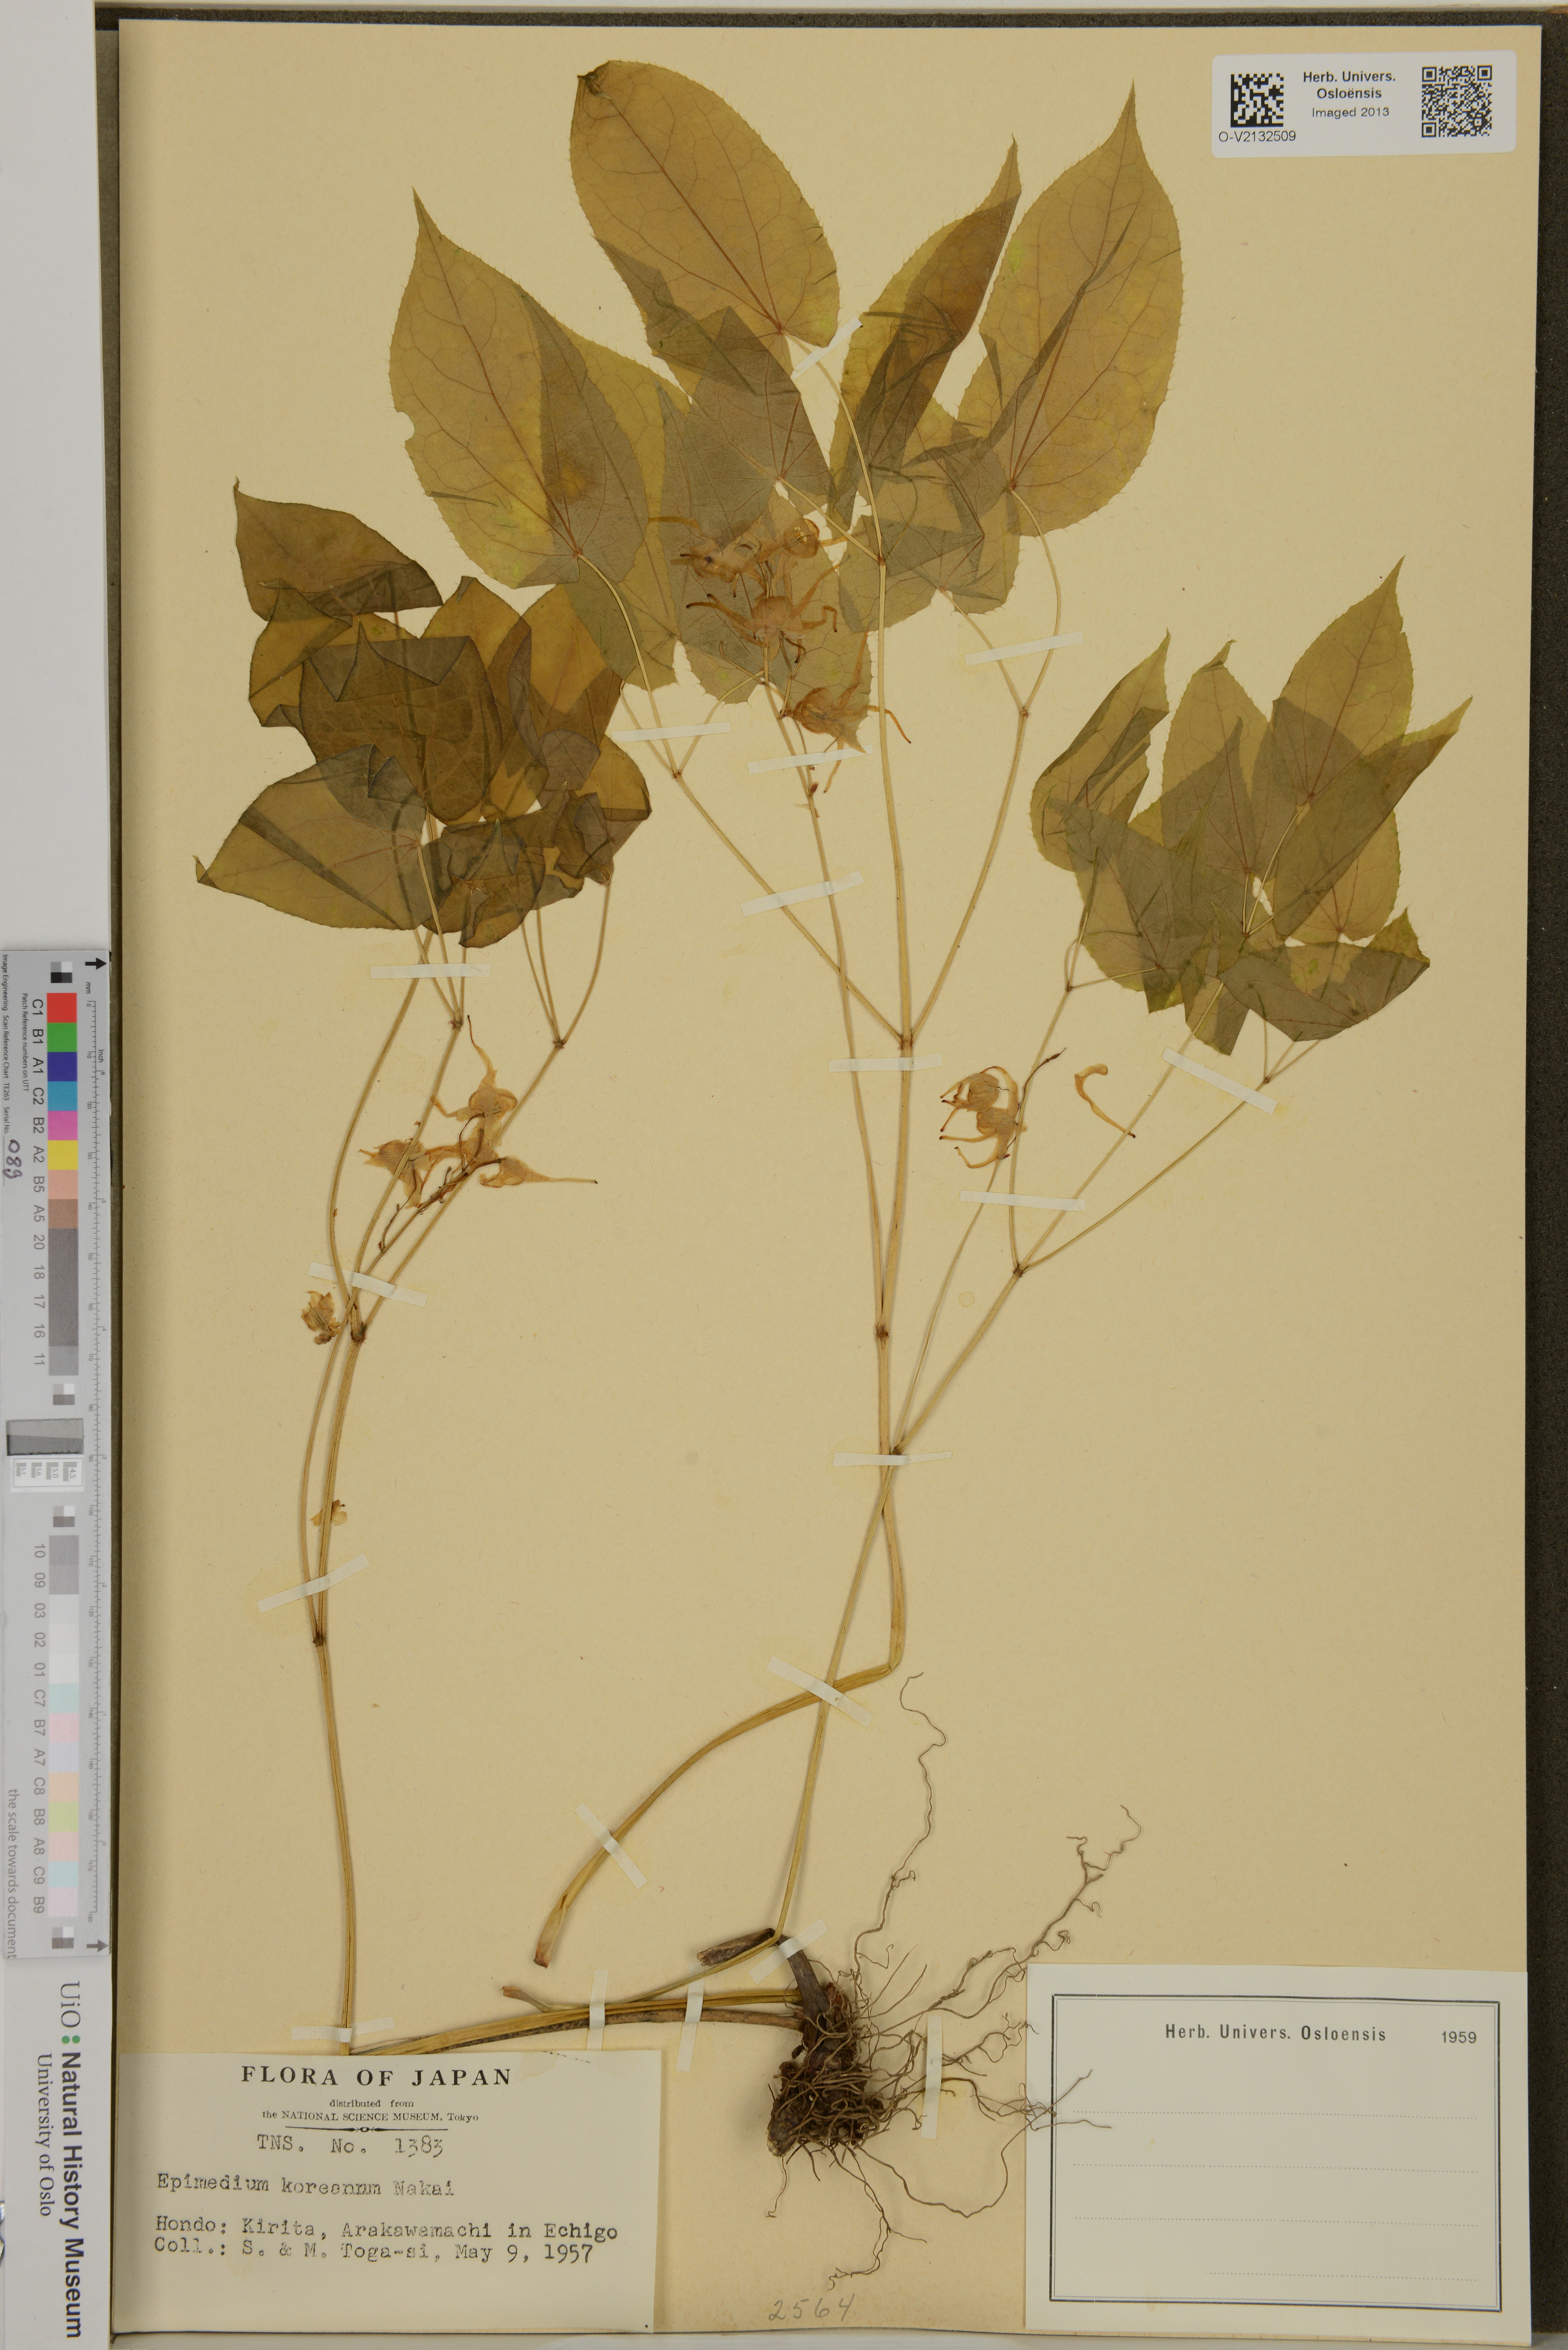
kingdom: Plantae
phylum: Tracheophyta
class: Magnoliopsida
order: Ranunculales
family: Berberidaceae
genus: Epimedium
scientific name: Epimedium koreanum
